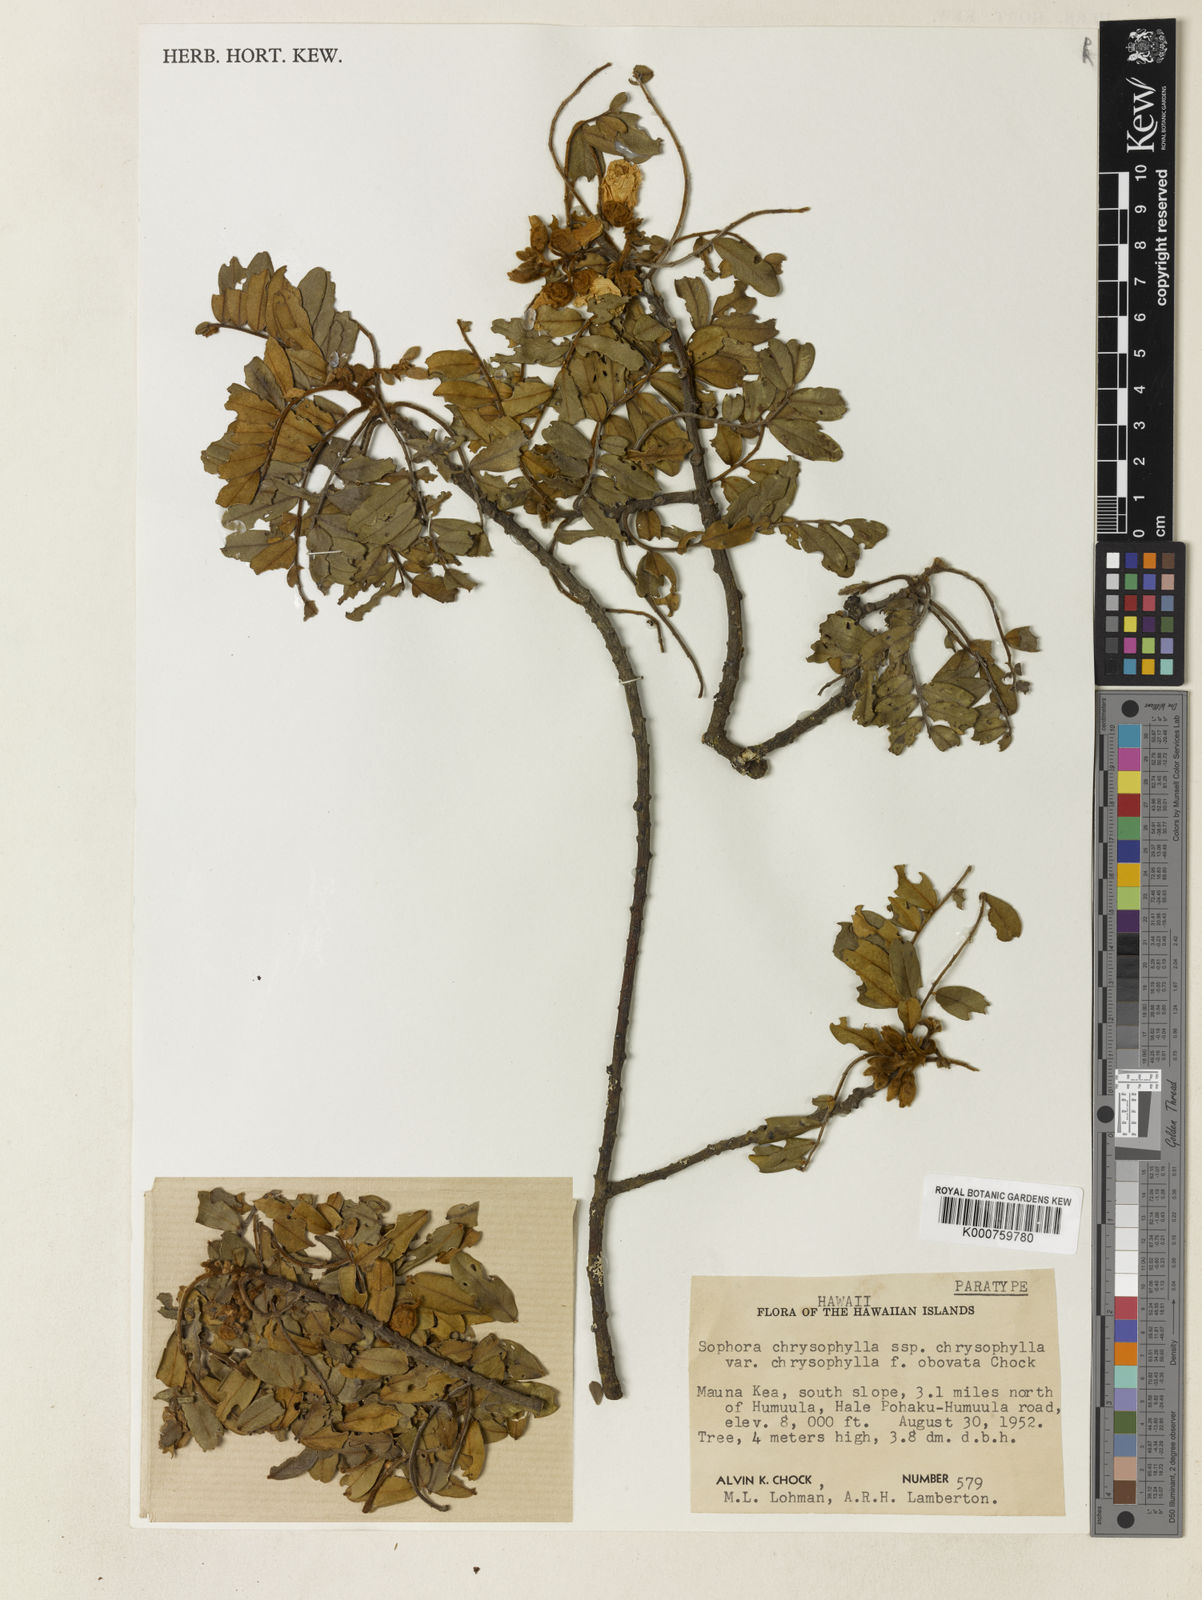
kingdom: Plantae
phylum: Tracheophyta
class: Magnoliopsida
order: Fabales
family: Fabaceae
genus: Sophora
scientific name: Sophora chrysophylla
